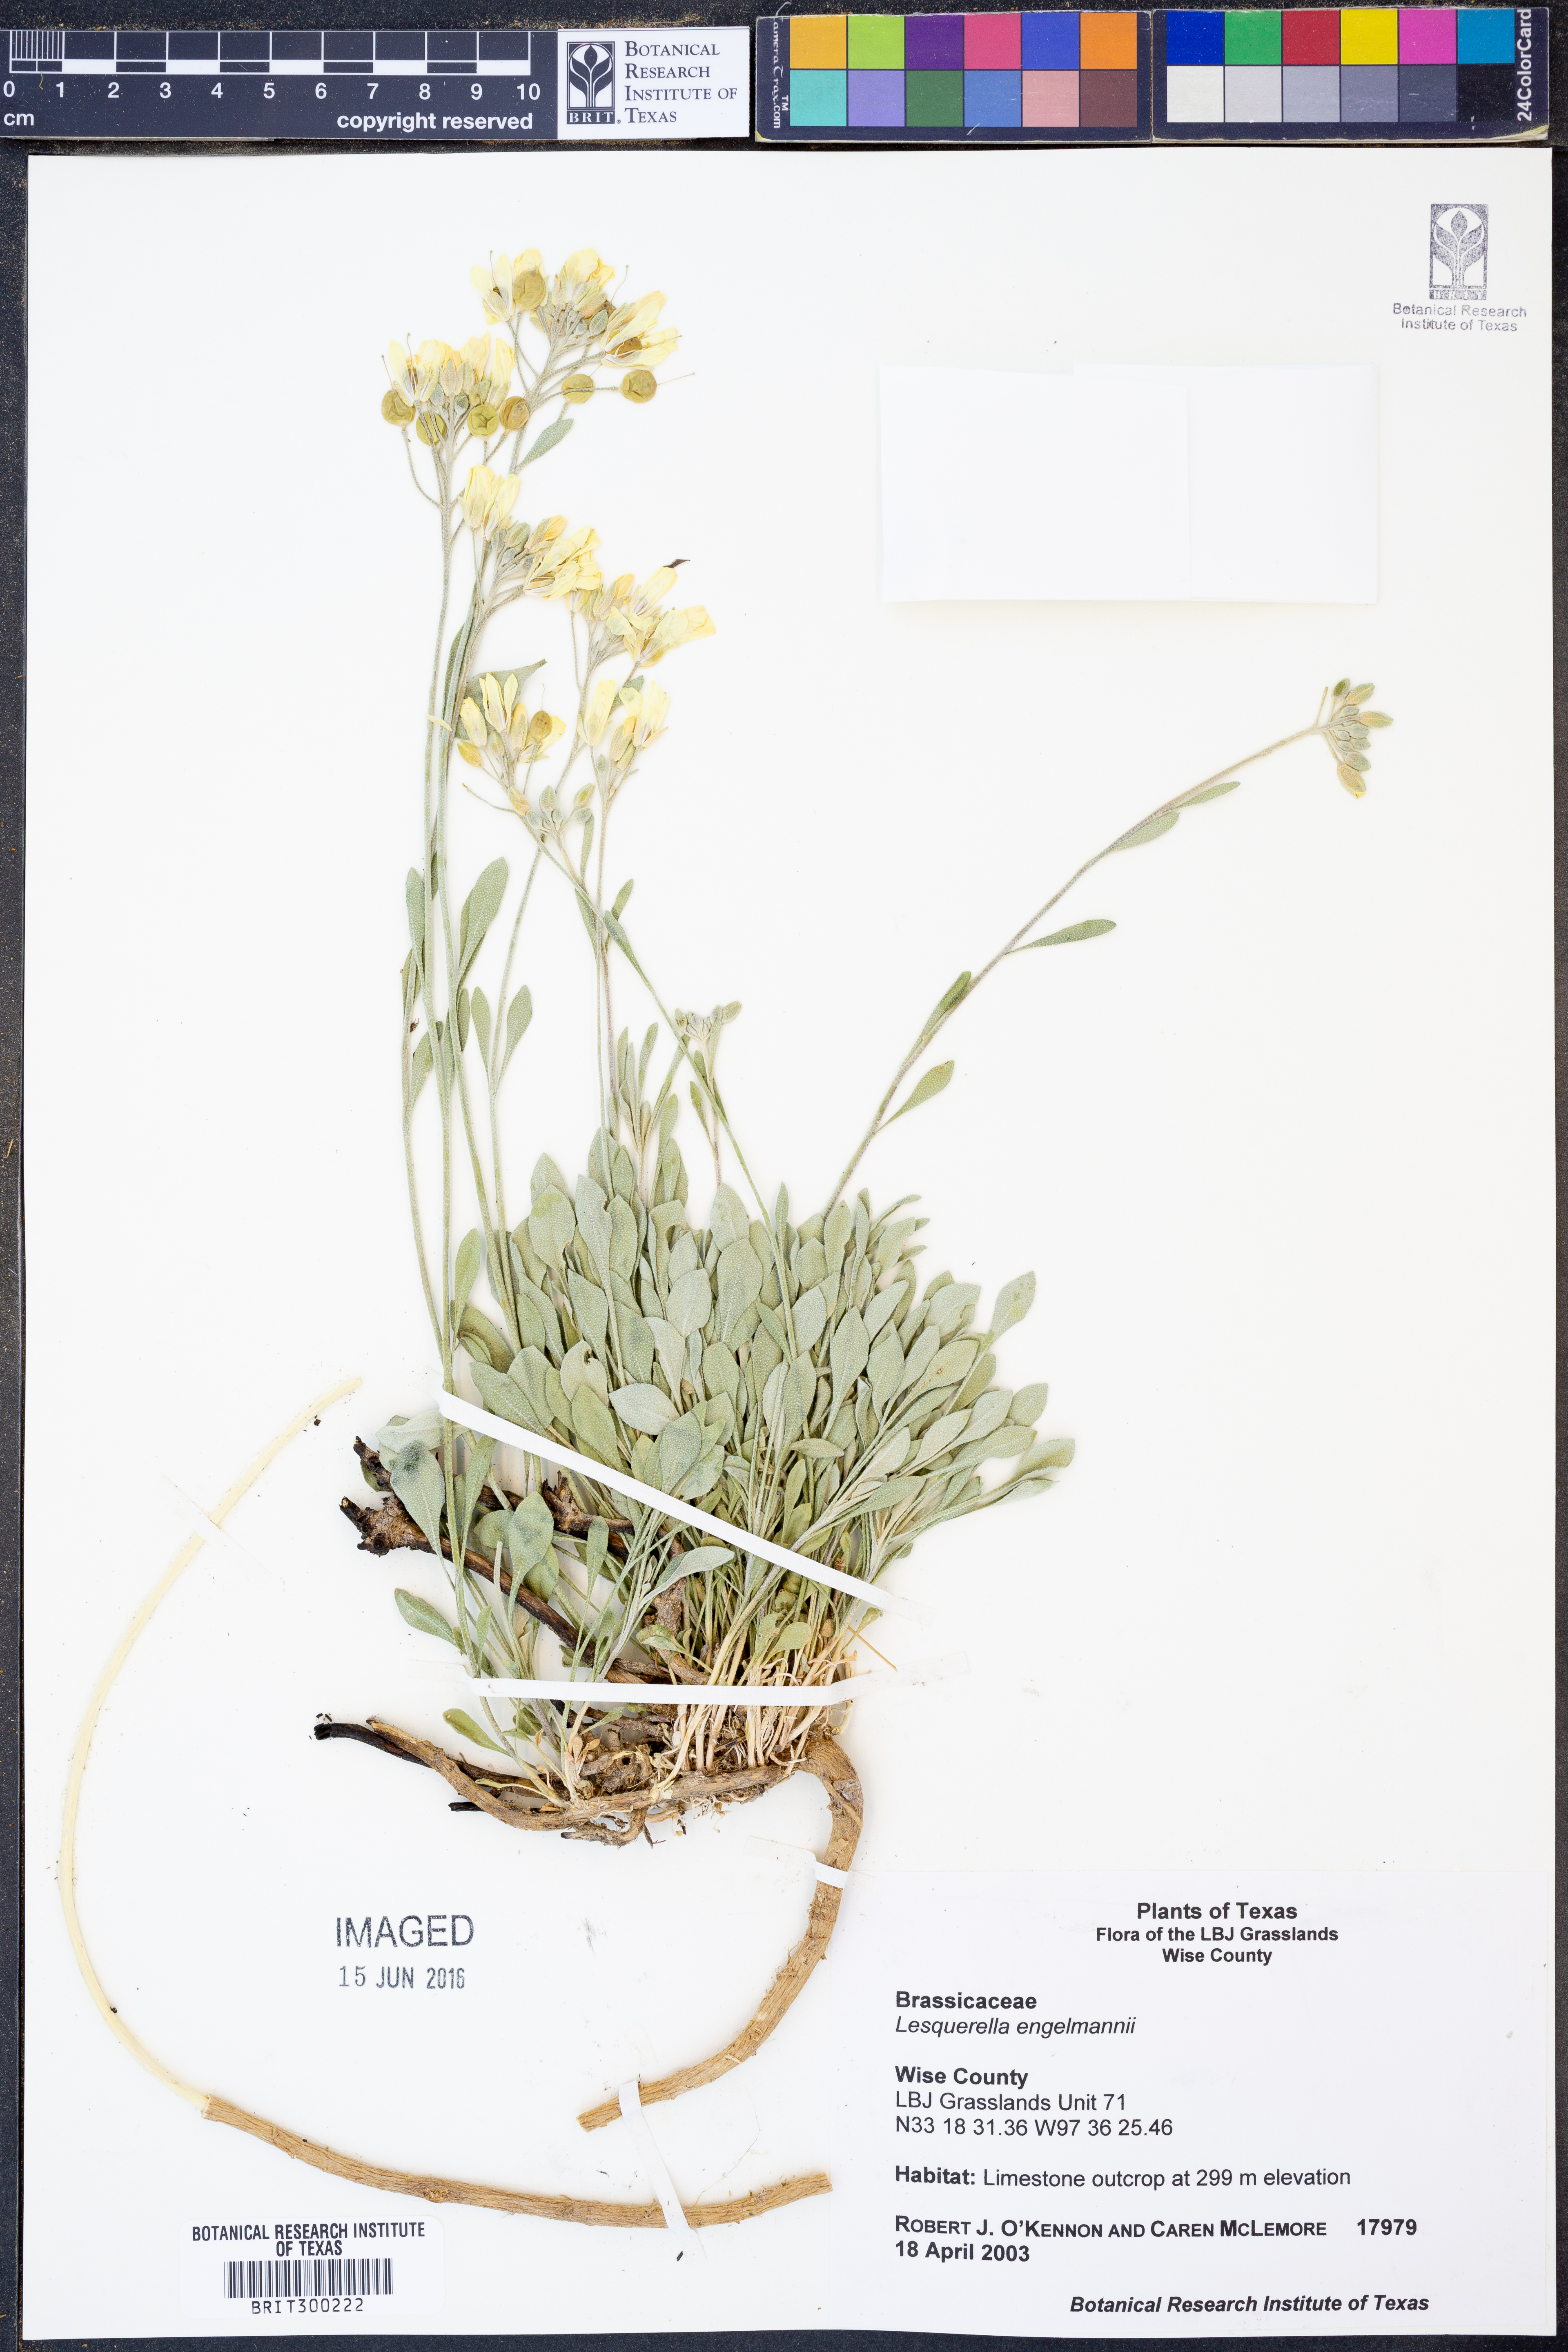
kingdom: Plantae
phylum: Tracheophyta
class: Magnoliopsida
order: Brassicales
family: Brassicaceae
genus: Physaria
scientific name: Physaria engelmannii
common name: Engelmann's bladderpod
